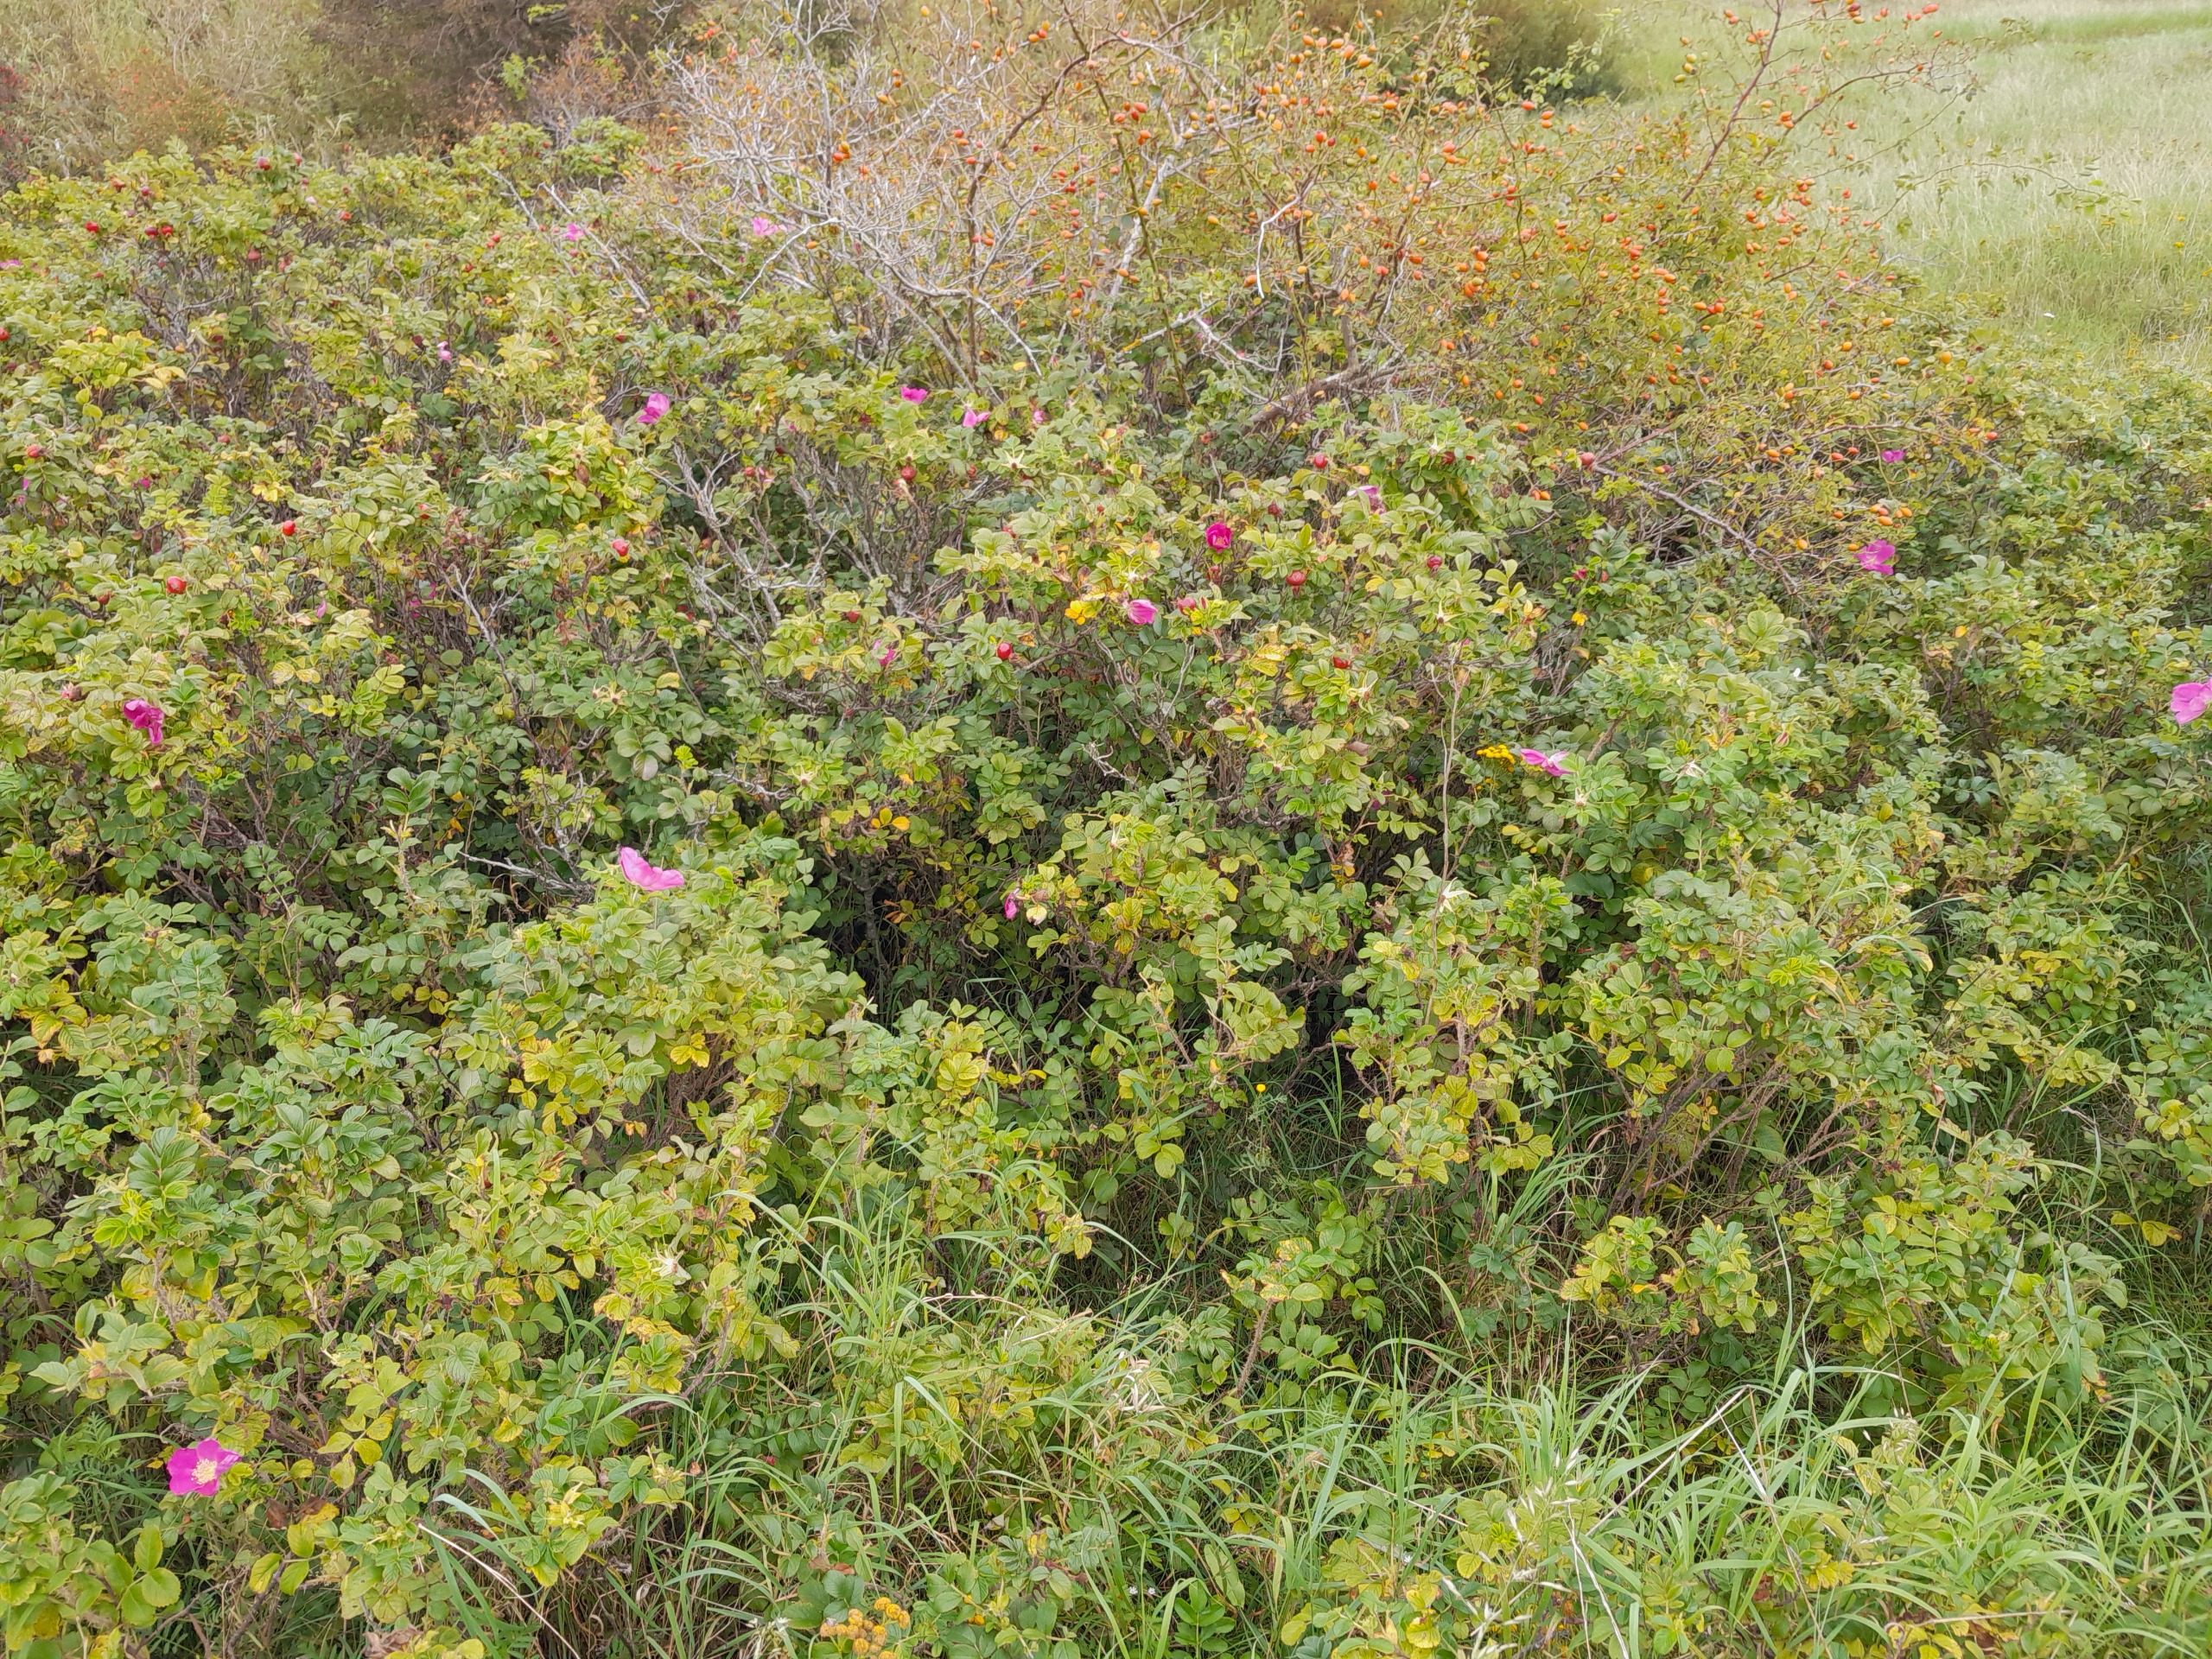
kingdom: Plantae
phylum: Tracheophyta
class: Magnoliopsida
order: Rosales
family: Rosaceae
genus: Rosa
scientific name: Rosa rugosa
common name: Rynket rose
